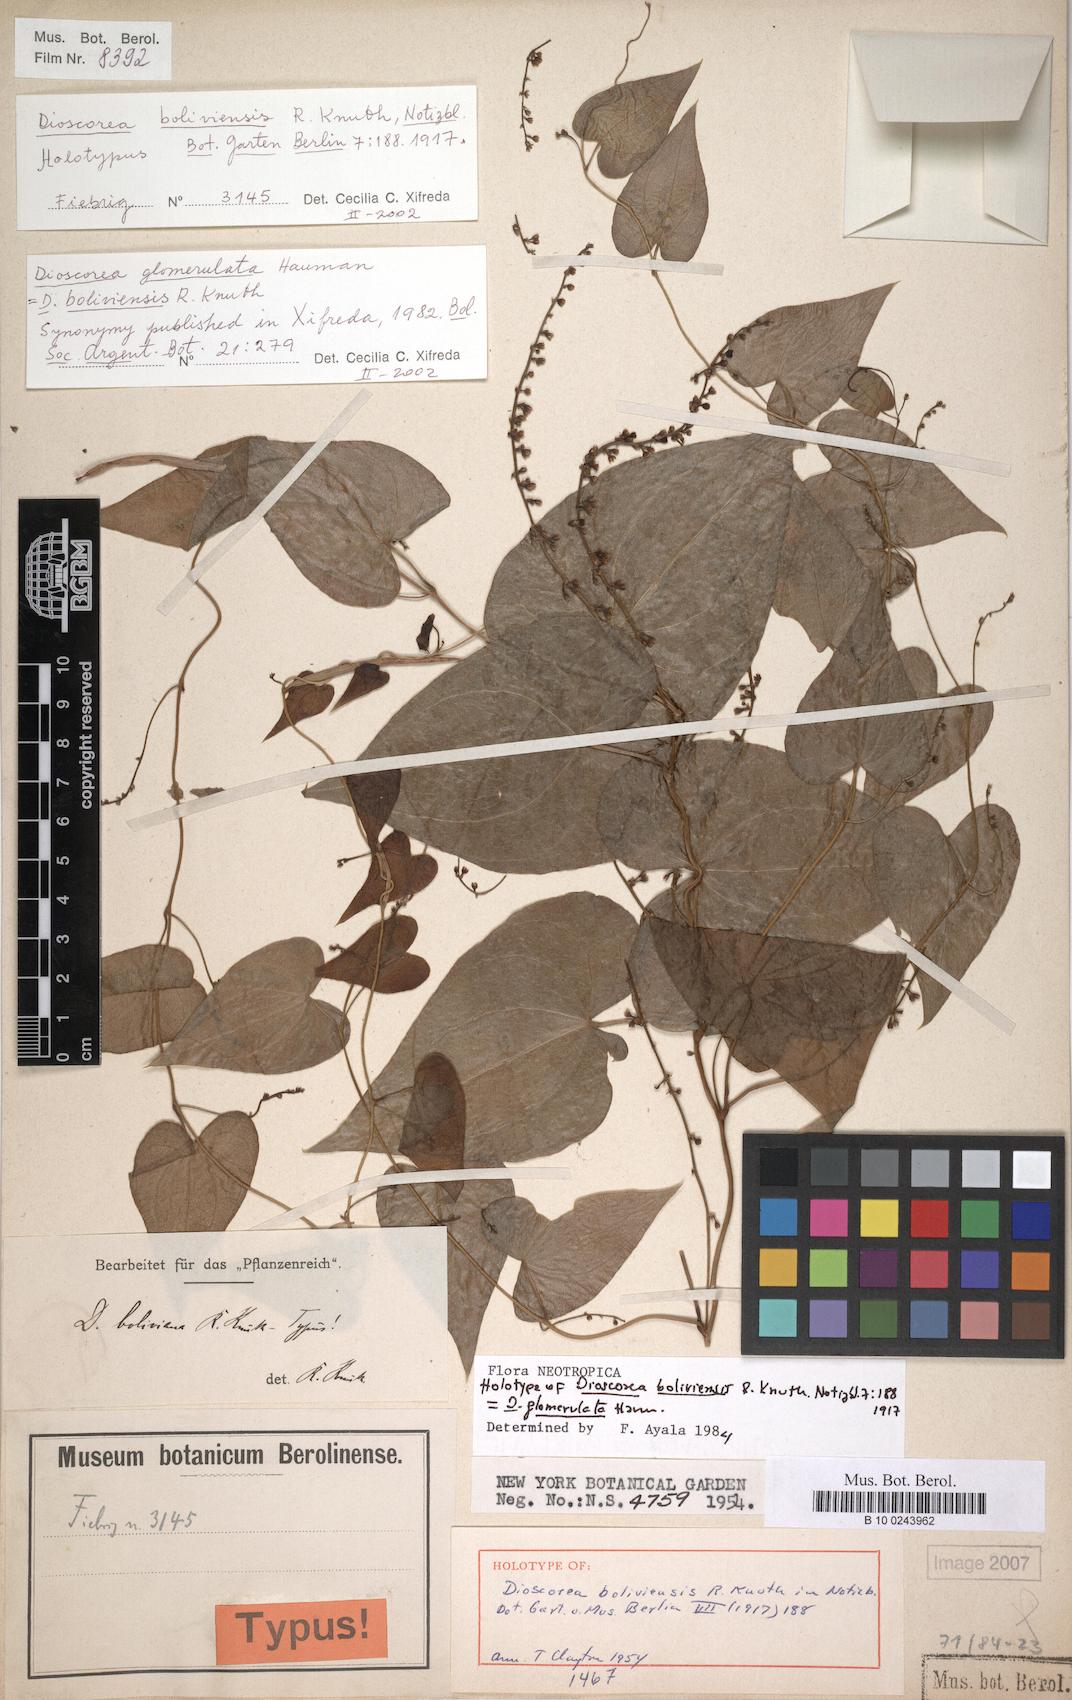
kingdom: Plantae
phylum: Tracheophyta
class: Liliopsida
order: Dioscoreales
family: Dioscoreaceae
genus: Dioscorea
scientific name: Dioscorea glomerulata
